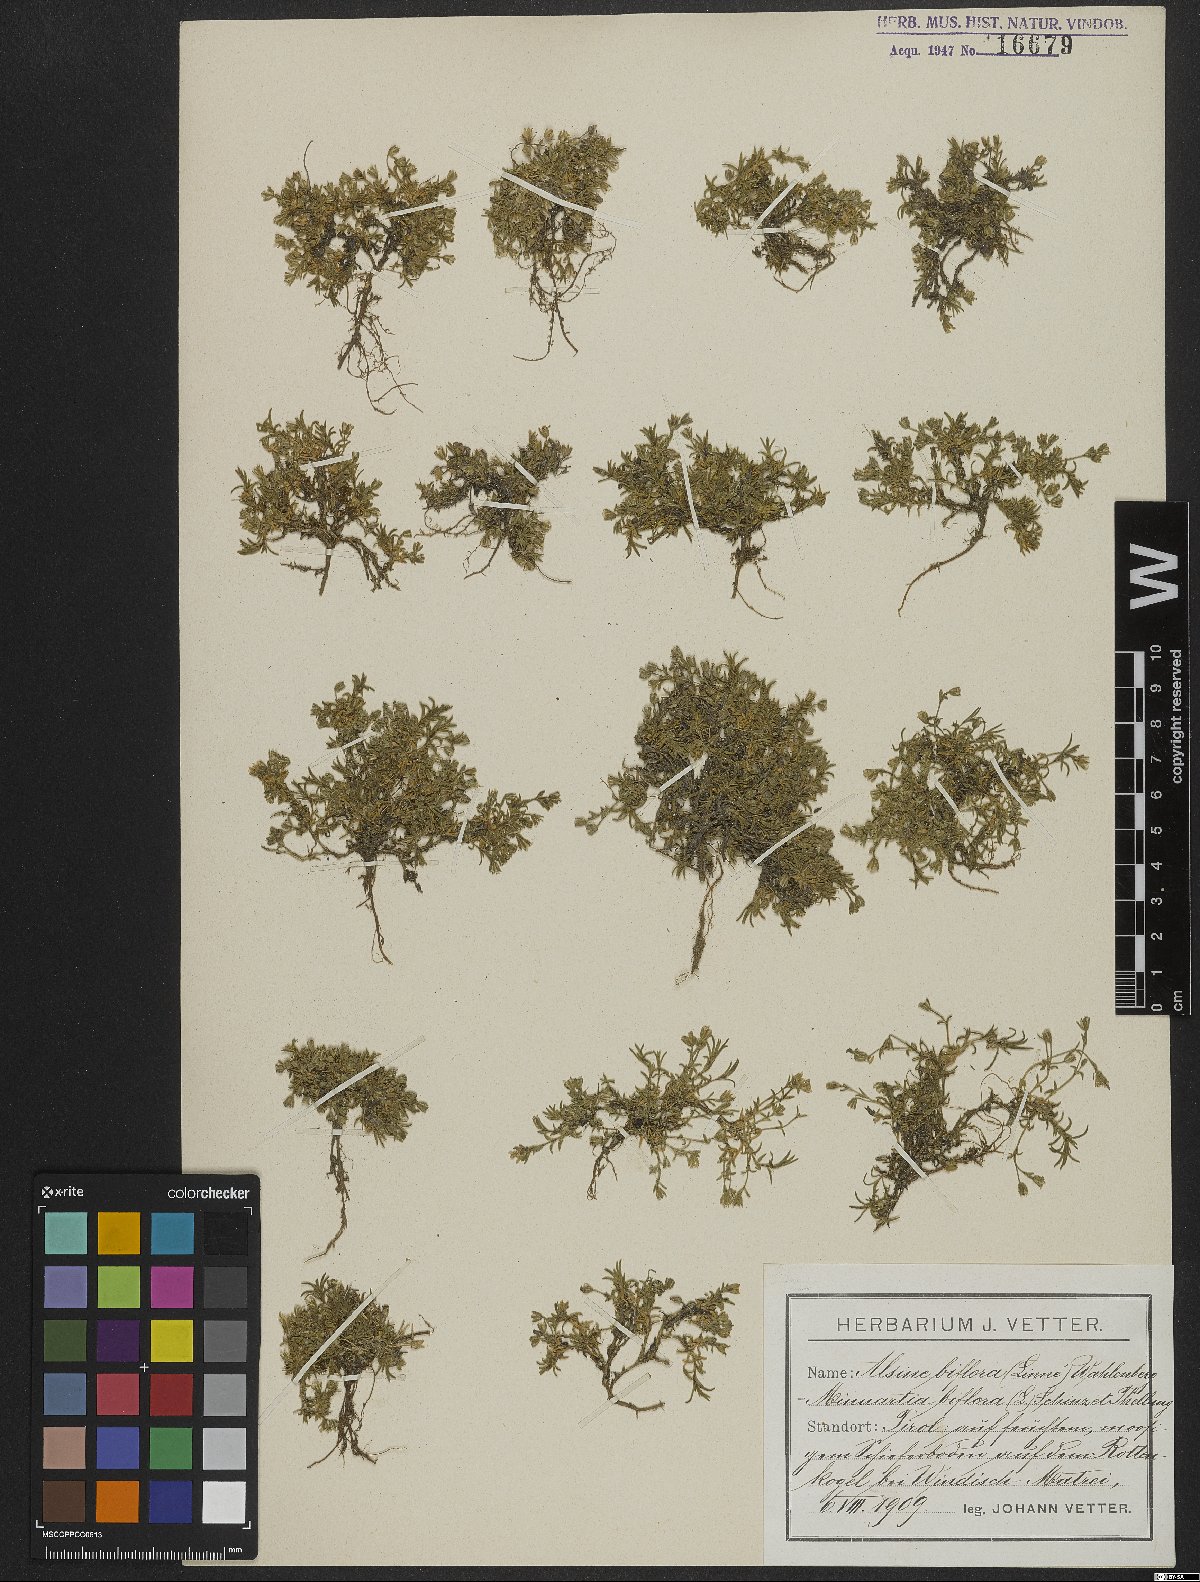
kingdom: Plantae
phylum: Tracheophyta
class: Magnoliopsida
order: Caryophyllales
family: Caryophyllaceae
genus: Cherleria
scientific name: Cherleria biflora
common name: Mountain sandwort
